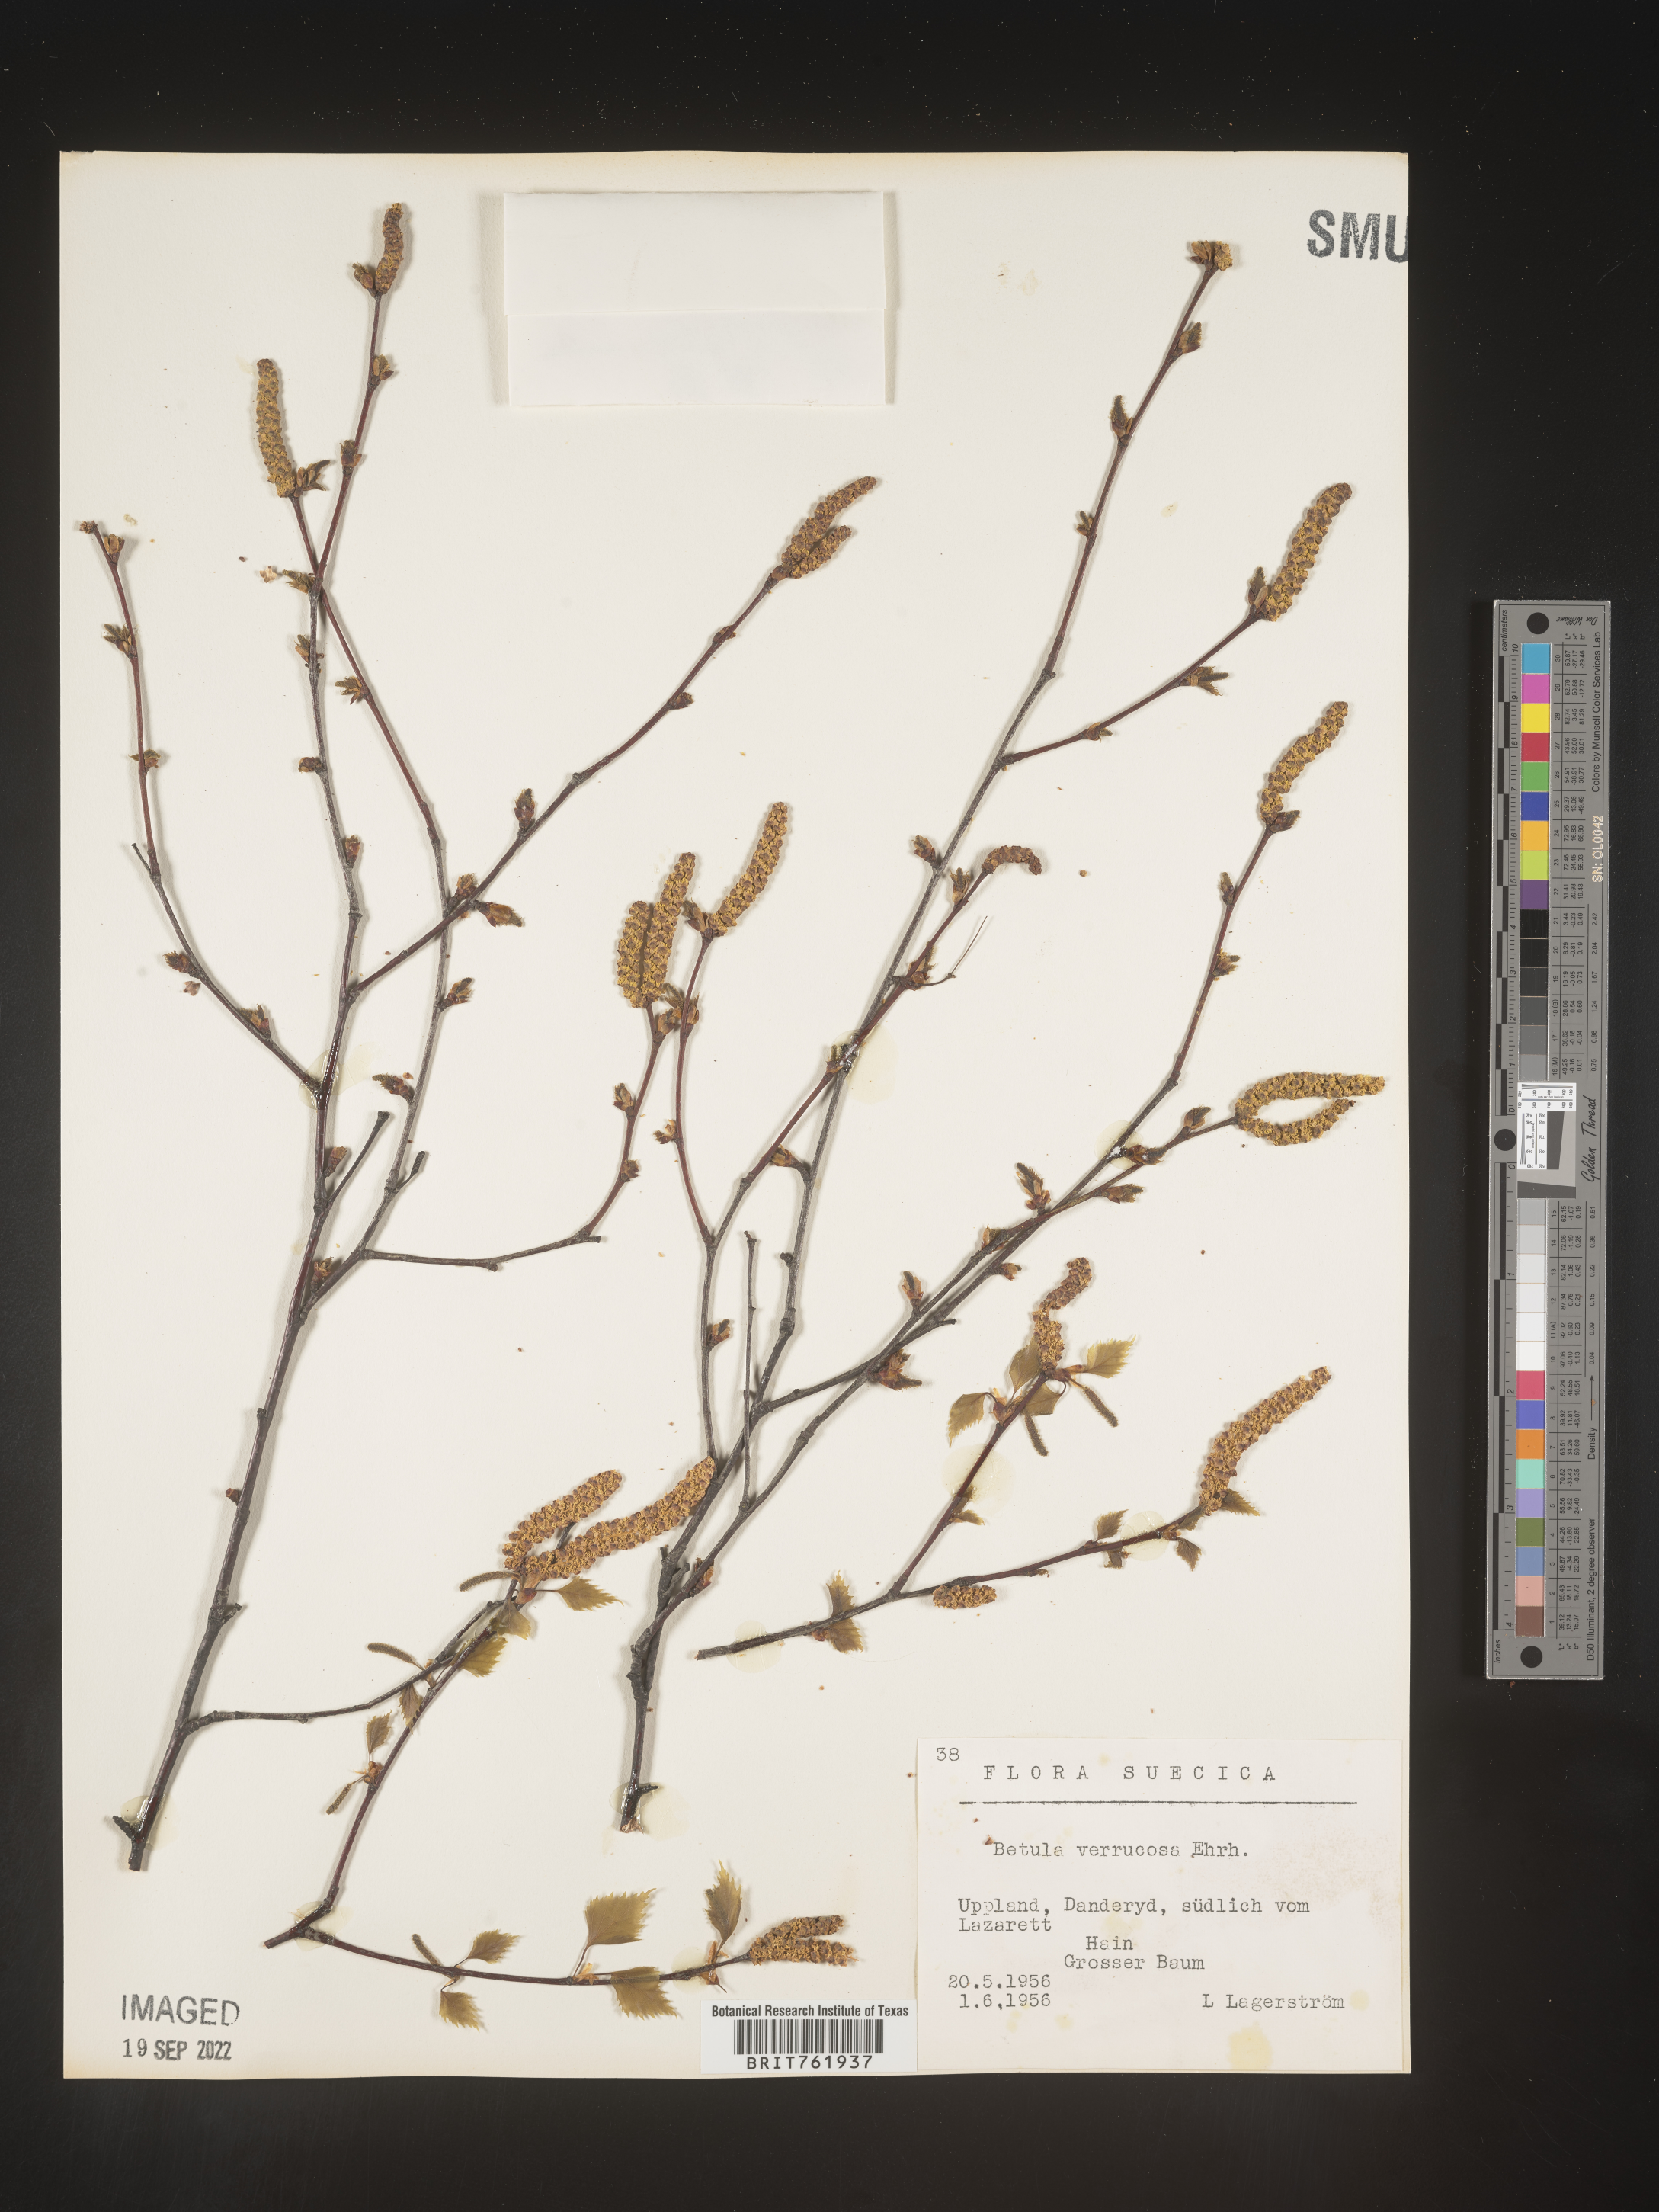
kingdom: Plantae
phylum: Tracheophyta
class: Magnoliopsida
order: Fagales
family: Betulaceae
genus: Betula
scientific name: Betula
